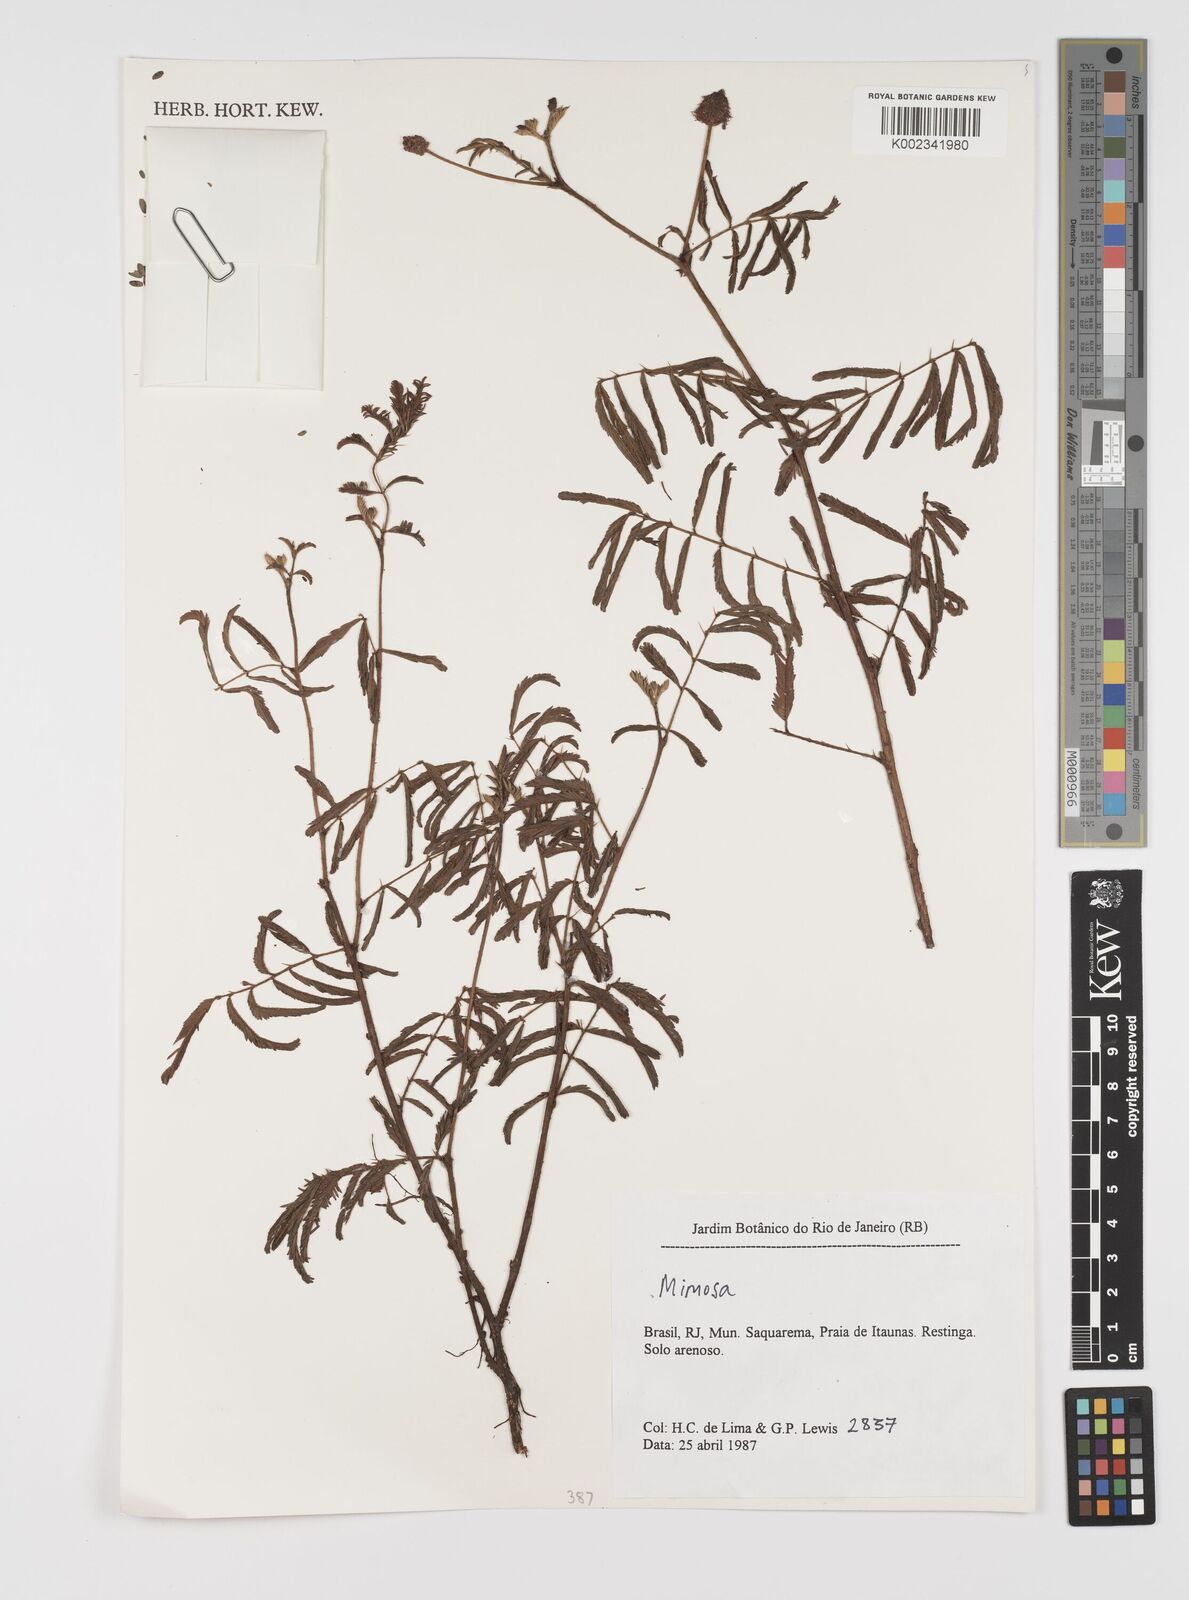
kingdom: Plantae
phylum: Tracheophyta
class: Magnoliopsida
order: Fabales
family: Fabaceae
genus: Mimosa
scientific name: Mimosa
